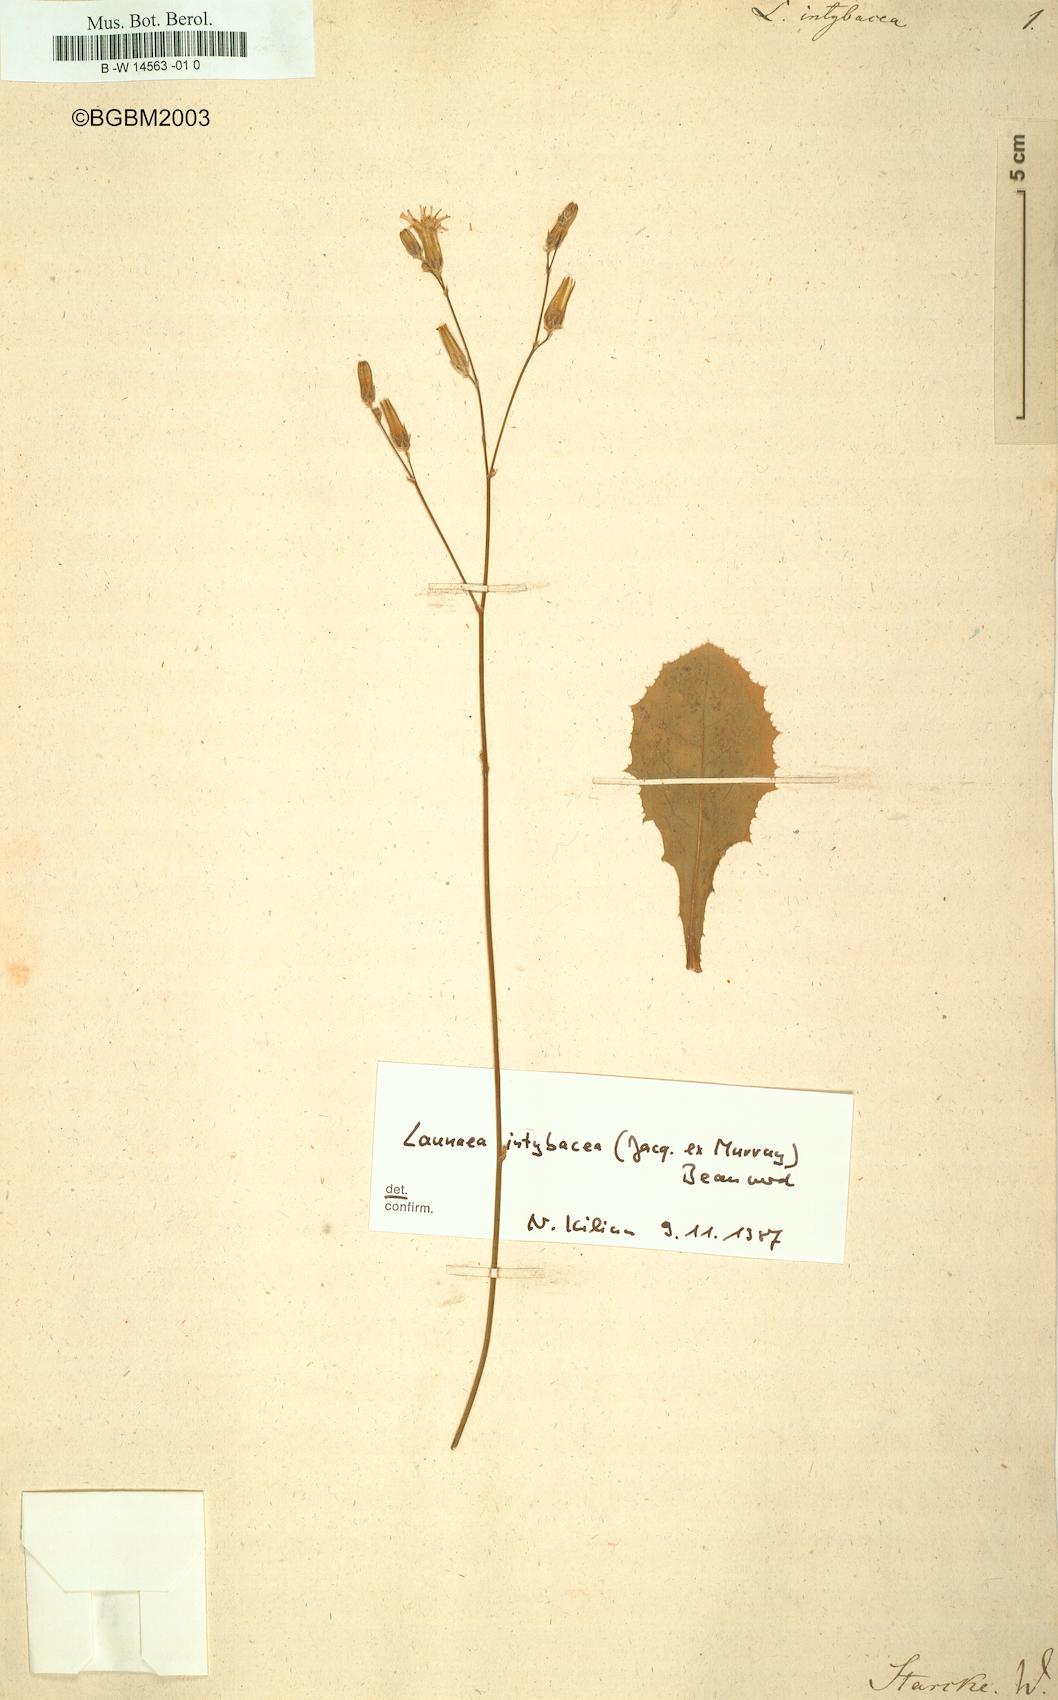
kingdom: Plantae
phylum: Tracheophyta
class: Magnoliopsida
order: Asterales
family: Asteraceae
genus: Launaea
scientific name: Launaea intybacea
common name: Achicoria azul
